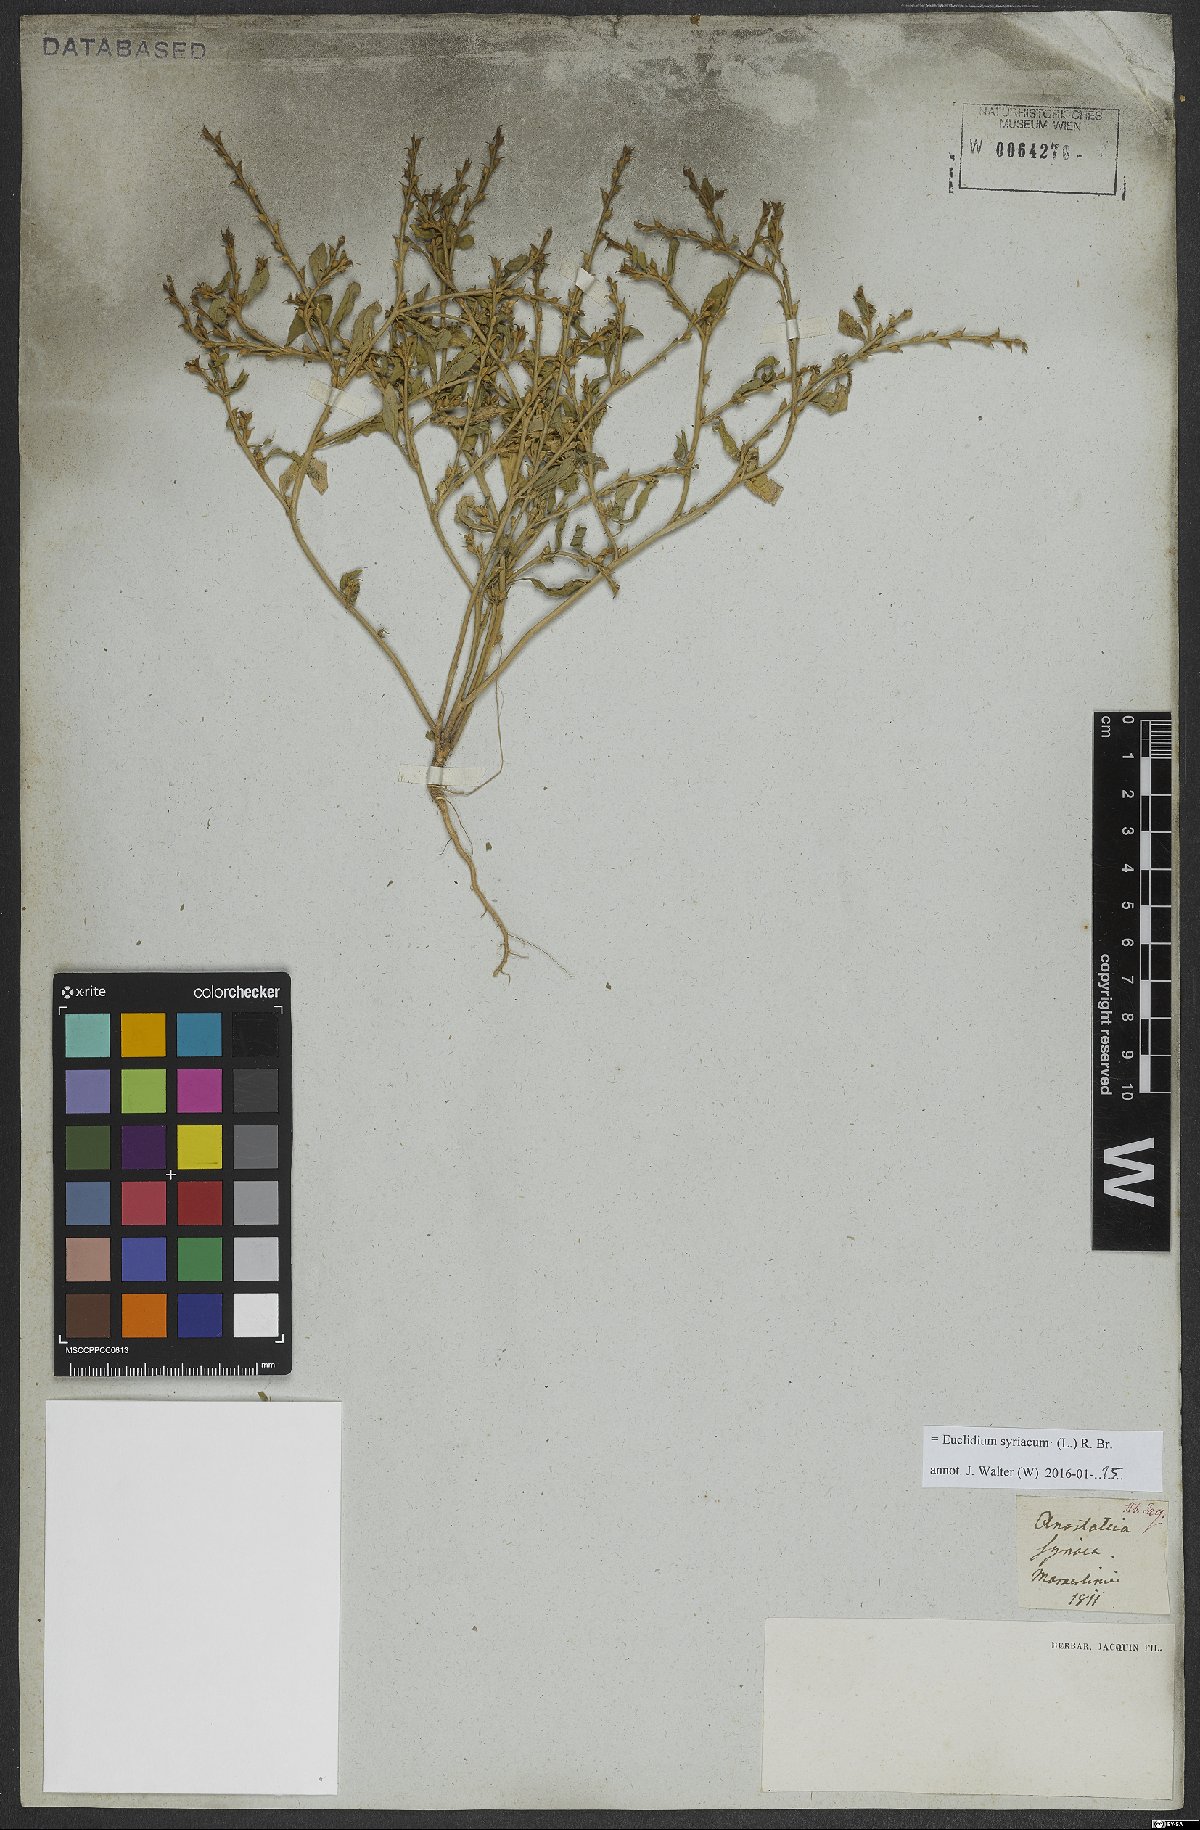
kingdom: Plantae
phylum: Tracheophyta
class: Magnoliopsida
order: Brassicales
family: Brassicaceae
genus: Euclidium
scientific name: Euclidium syriacum
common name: Syrian mustard
